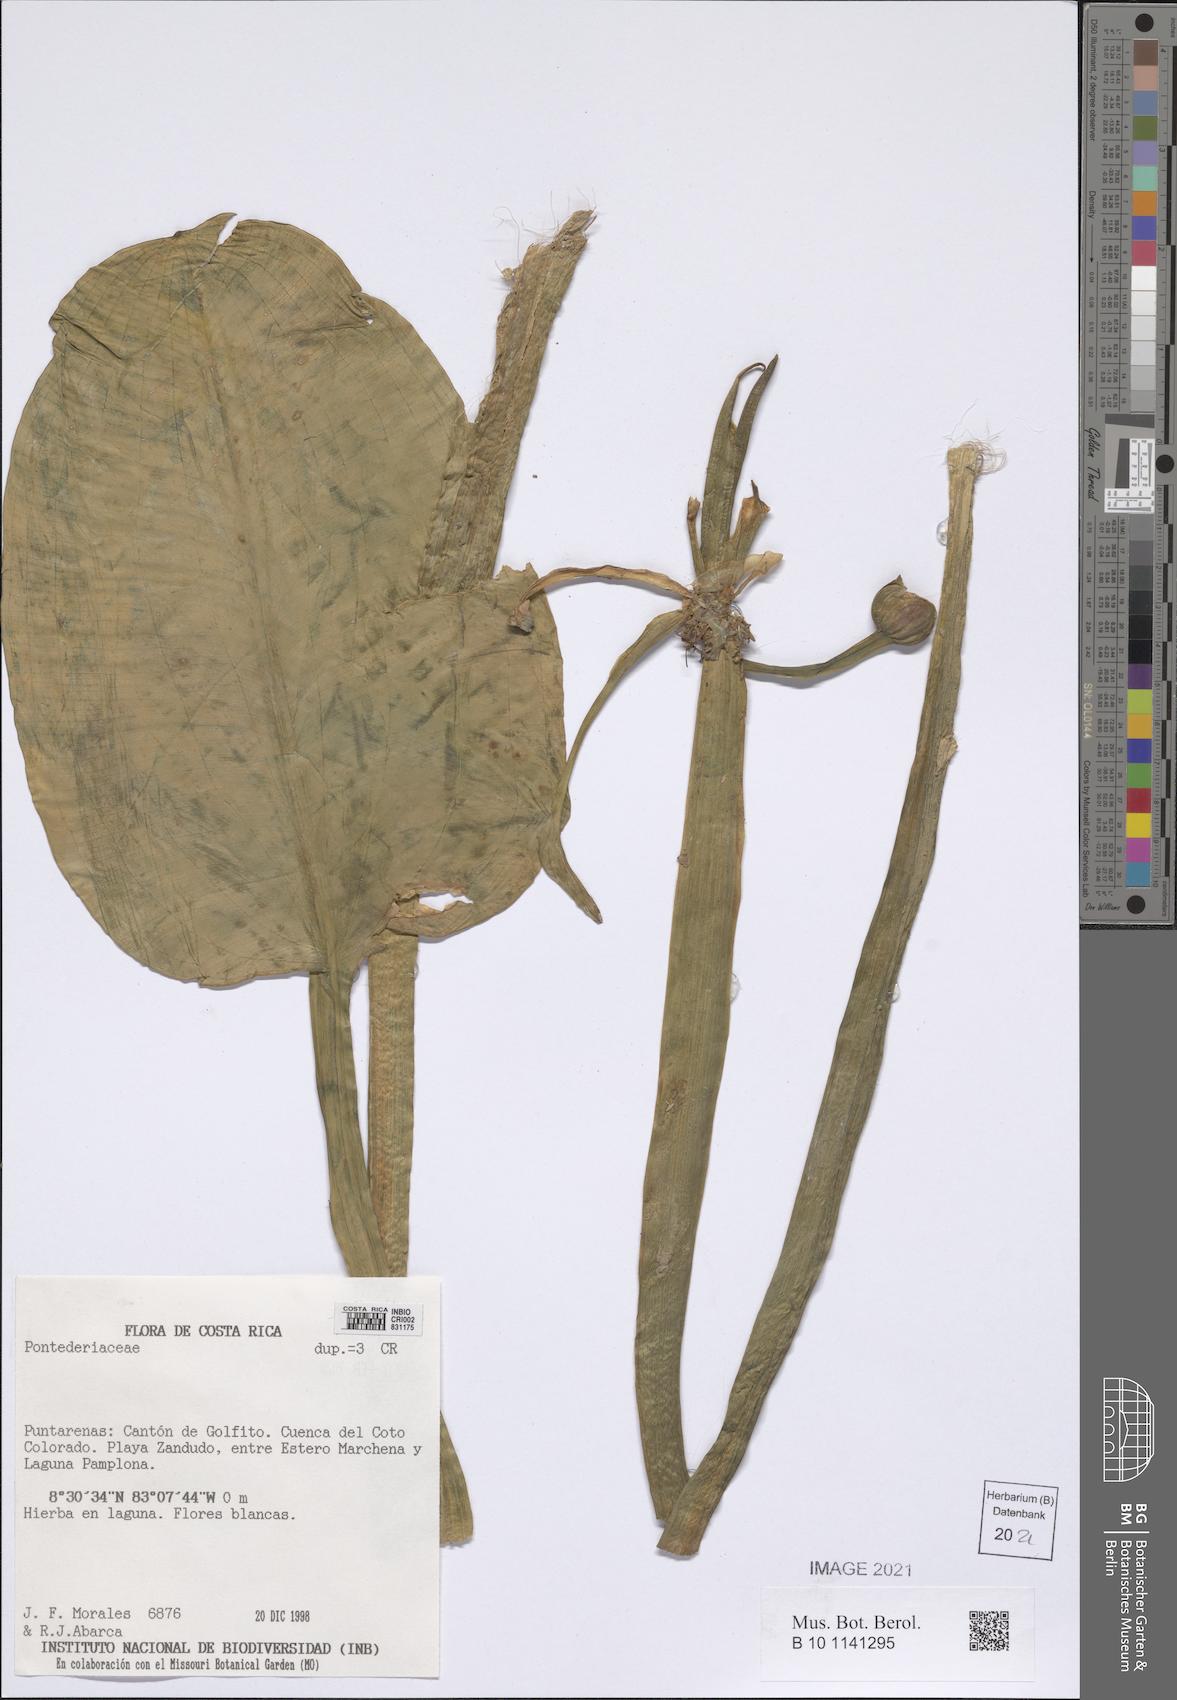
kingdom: Plantae
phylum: Tracheophyta
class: Liliopsida
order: Commelinales
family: Pontederiaceae
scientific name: Pontederiaceae
